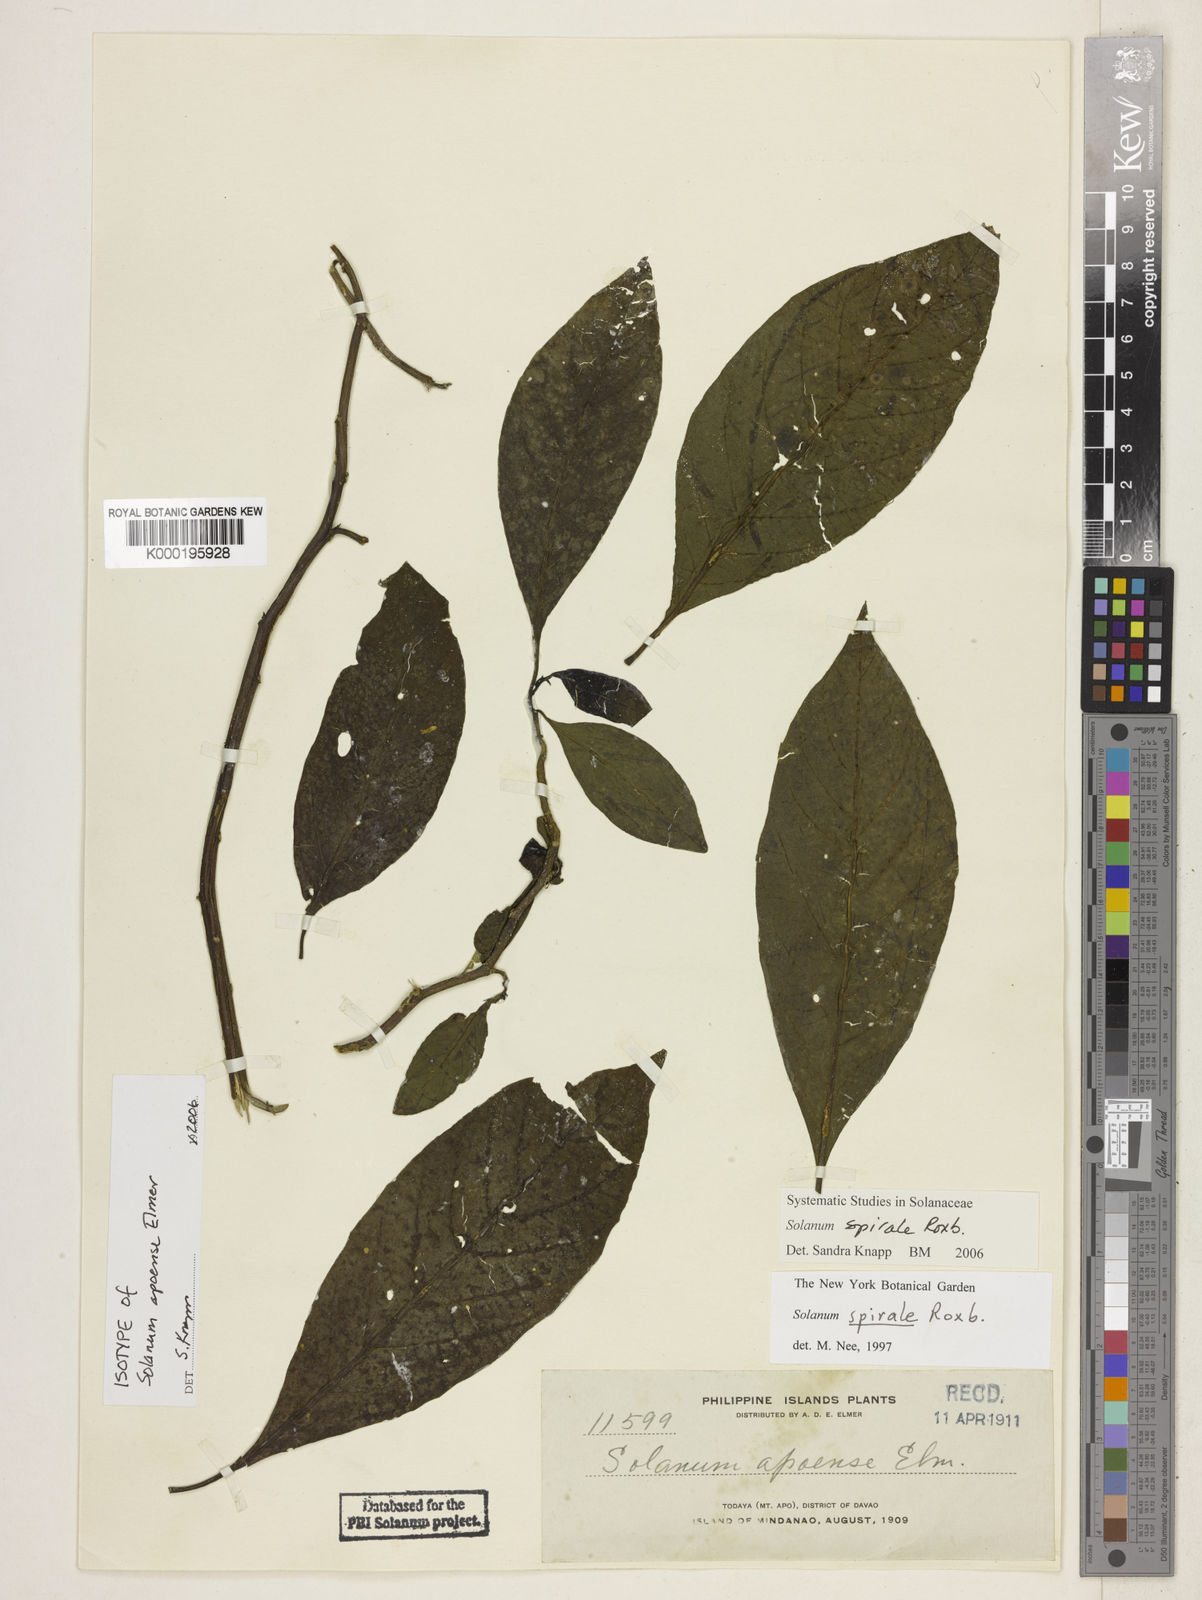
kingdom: Plantae
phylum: Tracheophyta
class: Magnoliopsida
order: Solanales
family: Solanaceae
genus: Solanum
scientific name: Solanum spirale
